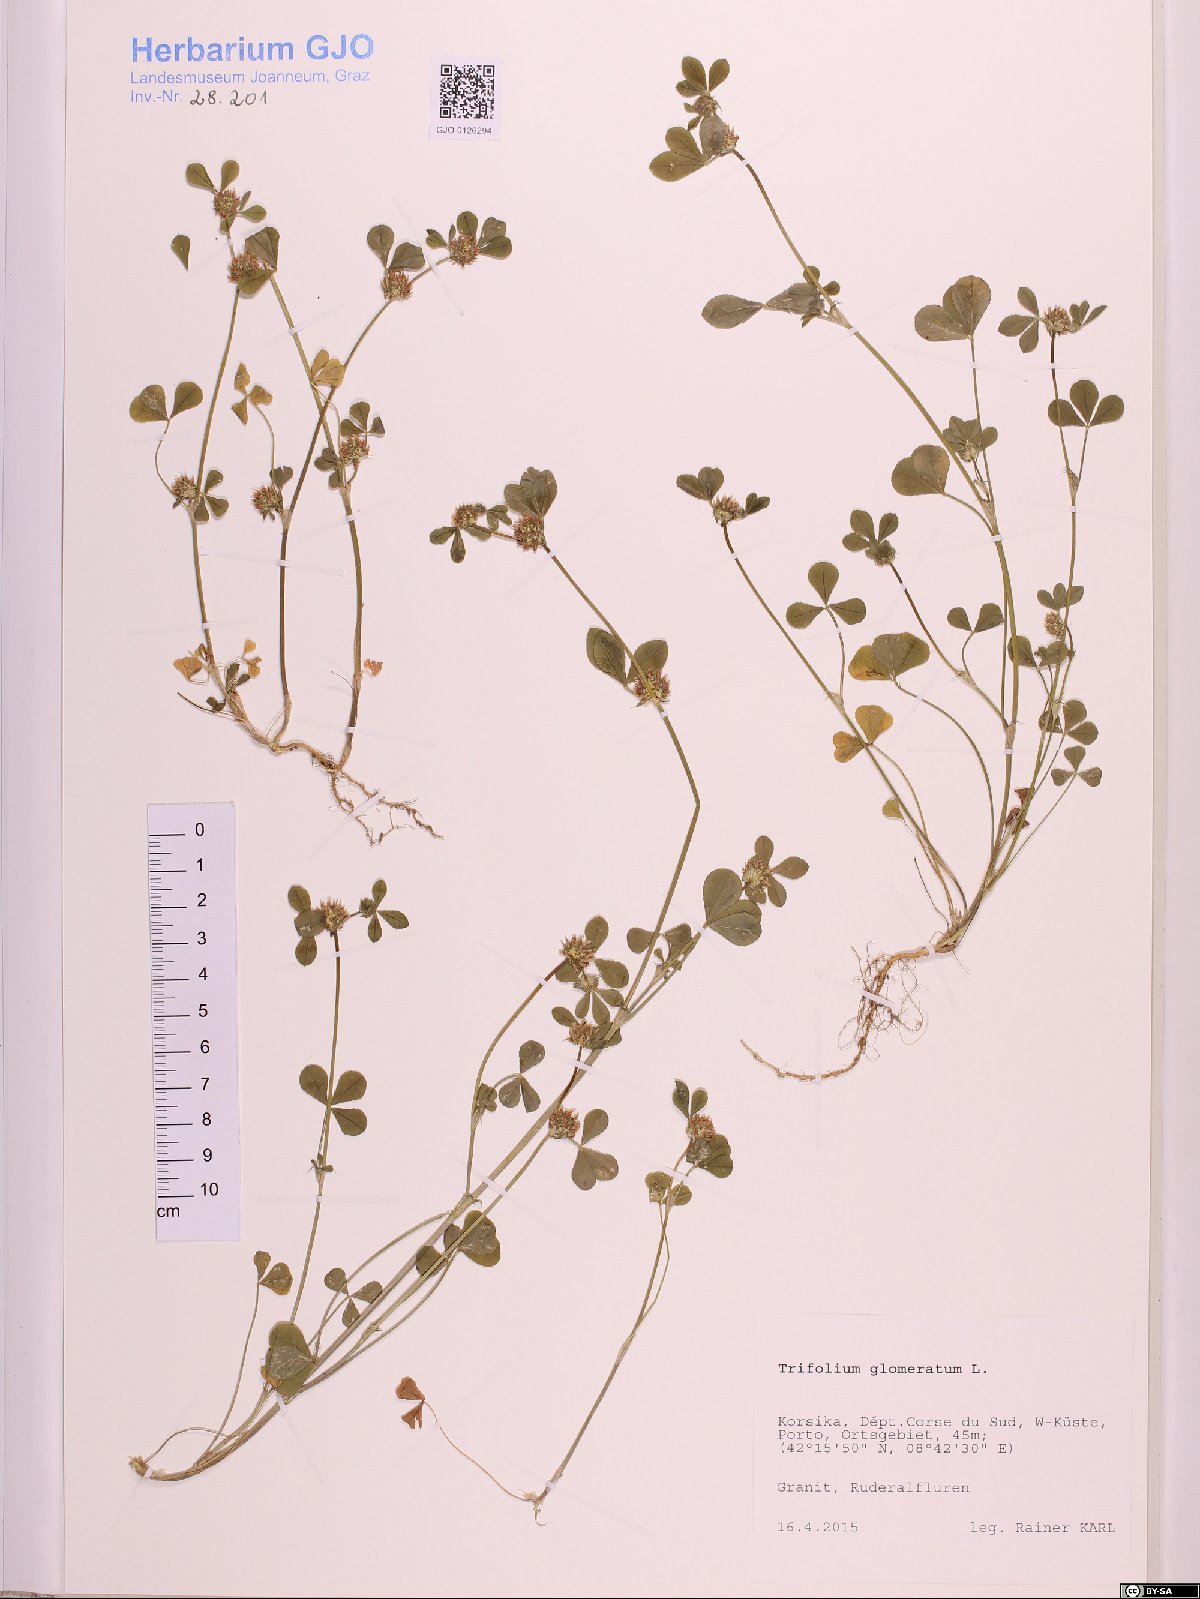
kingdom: Plantae
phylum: Tracheophyta
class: Magnoliopsida
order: Fabales
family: Fabaceae
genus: Trifolium
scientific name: Trifolium glomeratum
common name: Clustered clover
